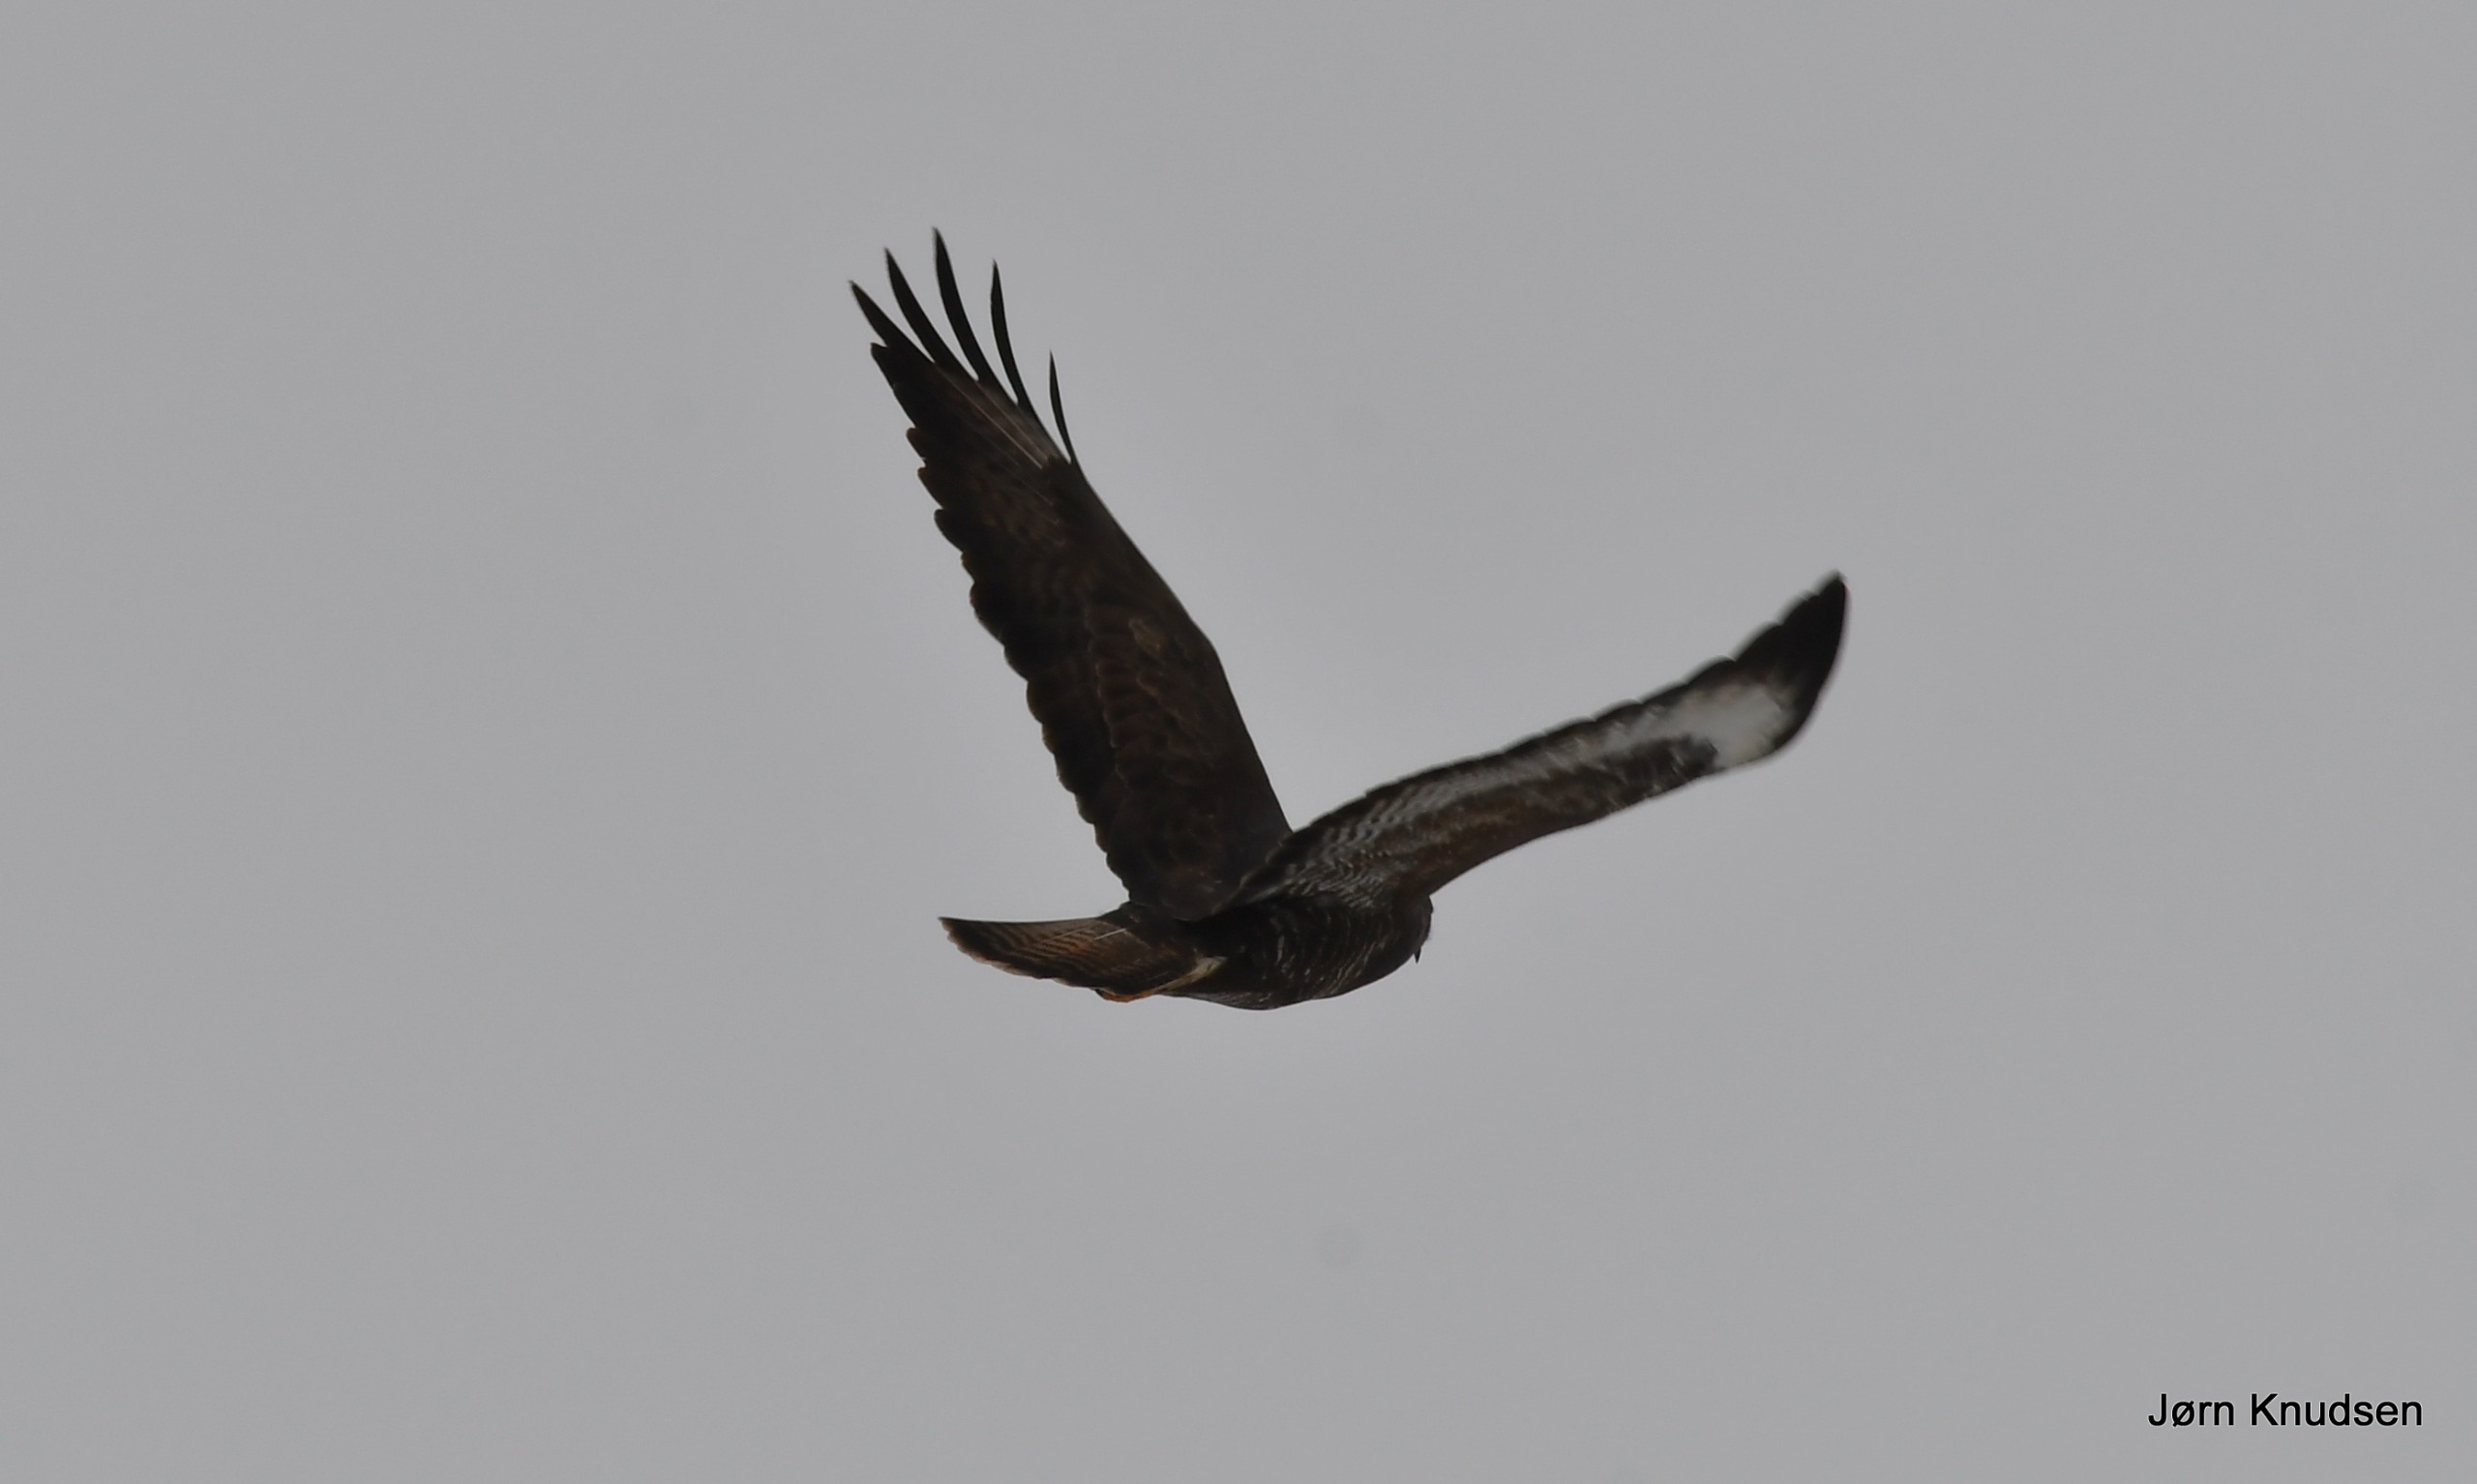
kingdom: Animalia
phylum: Chordata
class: Aves
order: Accipitriformes
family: Accipitridae
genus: Buteo
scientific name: Buteo buteo
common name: Musvåge
